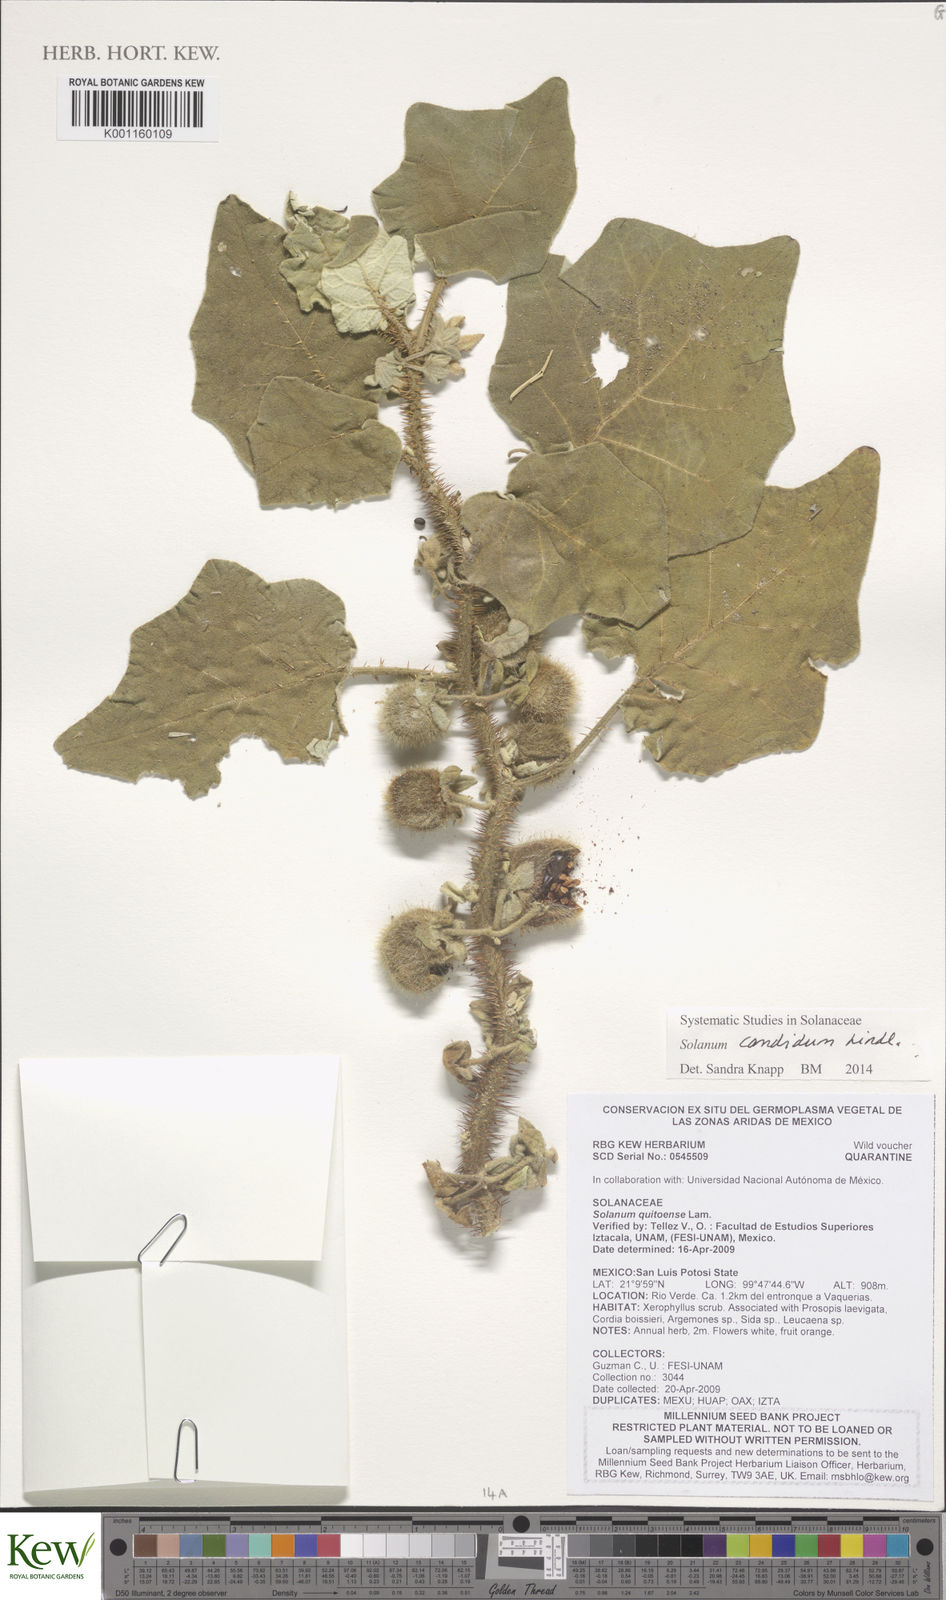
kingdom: Plantae
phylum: Tracheophyta
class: Magnoliopsida
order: Solanales
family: Solanaceae
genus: Solanum
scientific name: Solanum candidum
